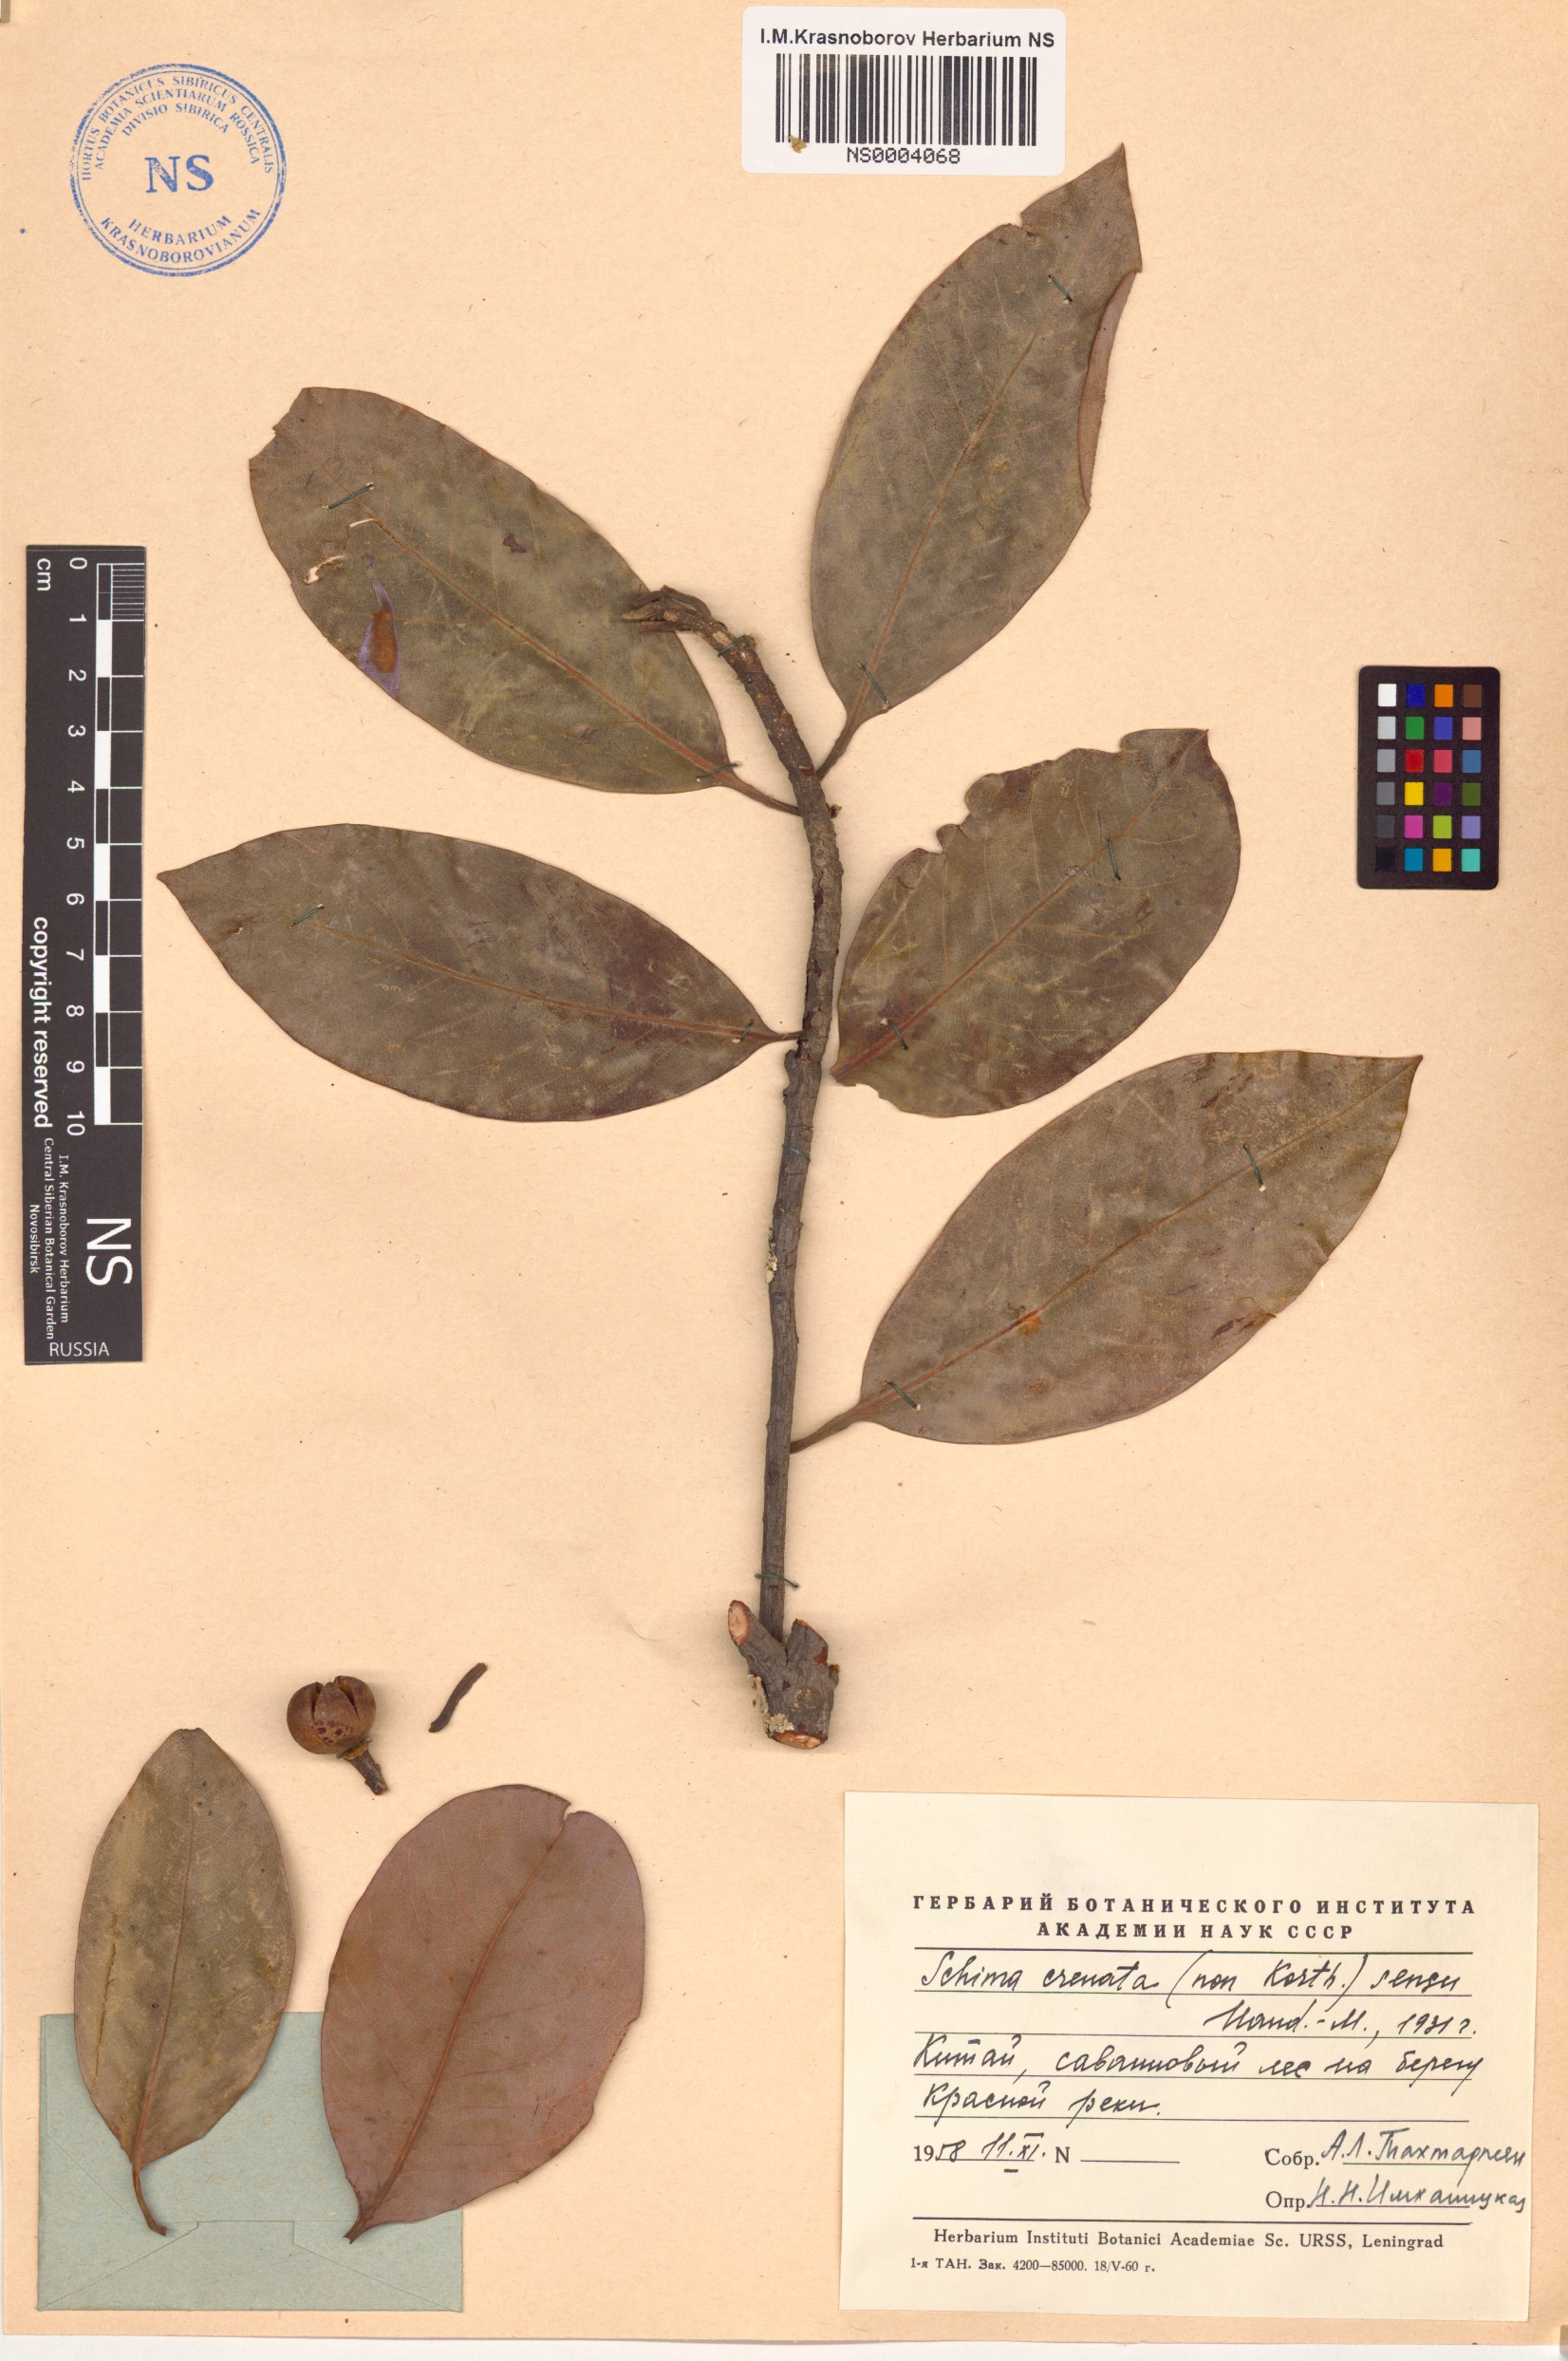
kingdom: Plantae
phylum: Tracheophyta
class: Magnoliopsida
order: Ericales
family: Theaceae
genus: Schima
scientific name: Schima wallichii
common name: Schima
